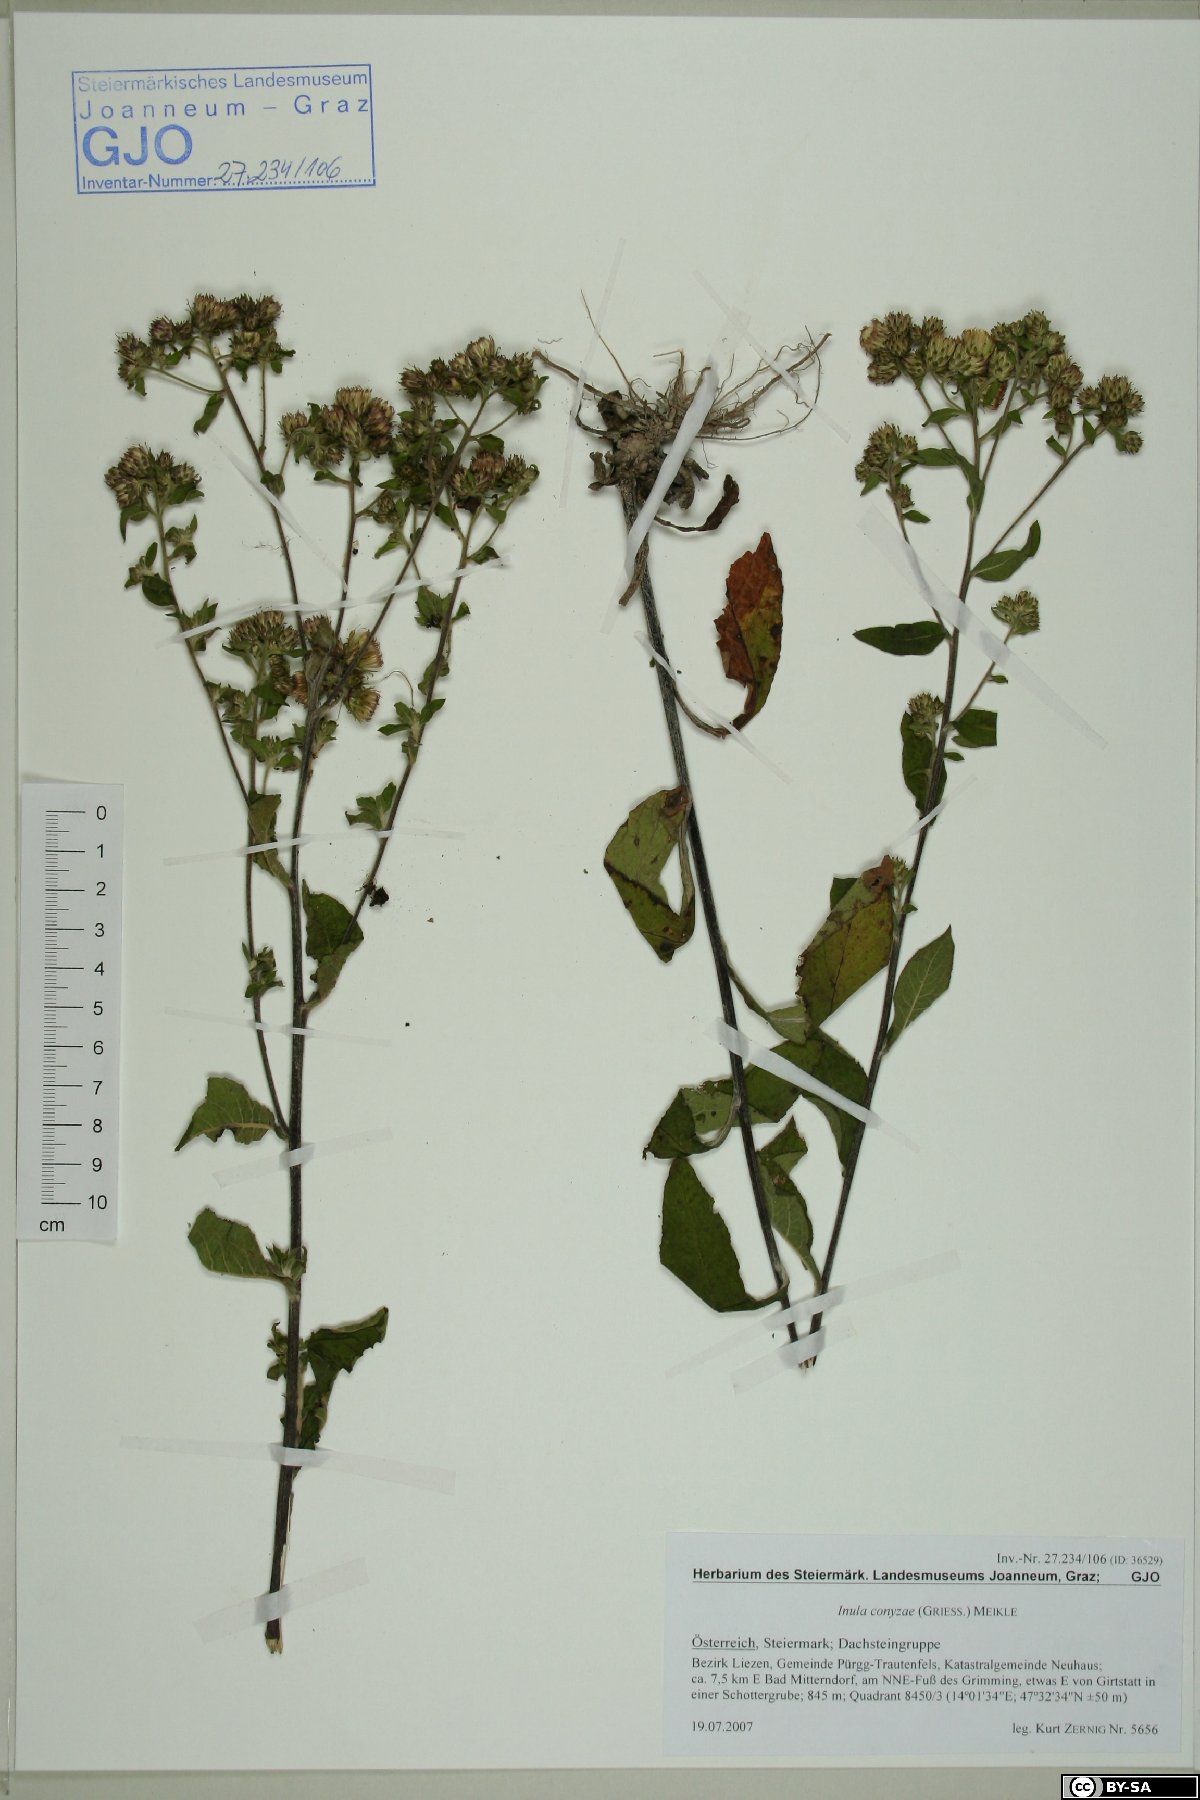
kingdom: Plantae
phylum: Tracheophyta
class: Magnoliopsida
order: Asterales
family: Asteraceae
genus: Pentanema
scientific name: Pentanema squarrosum
